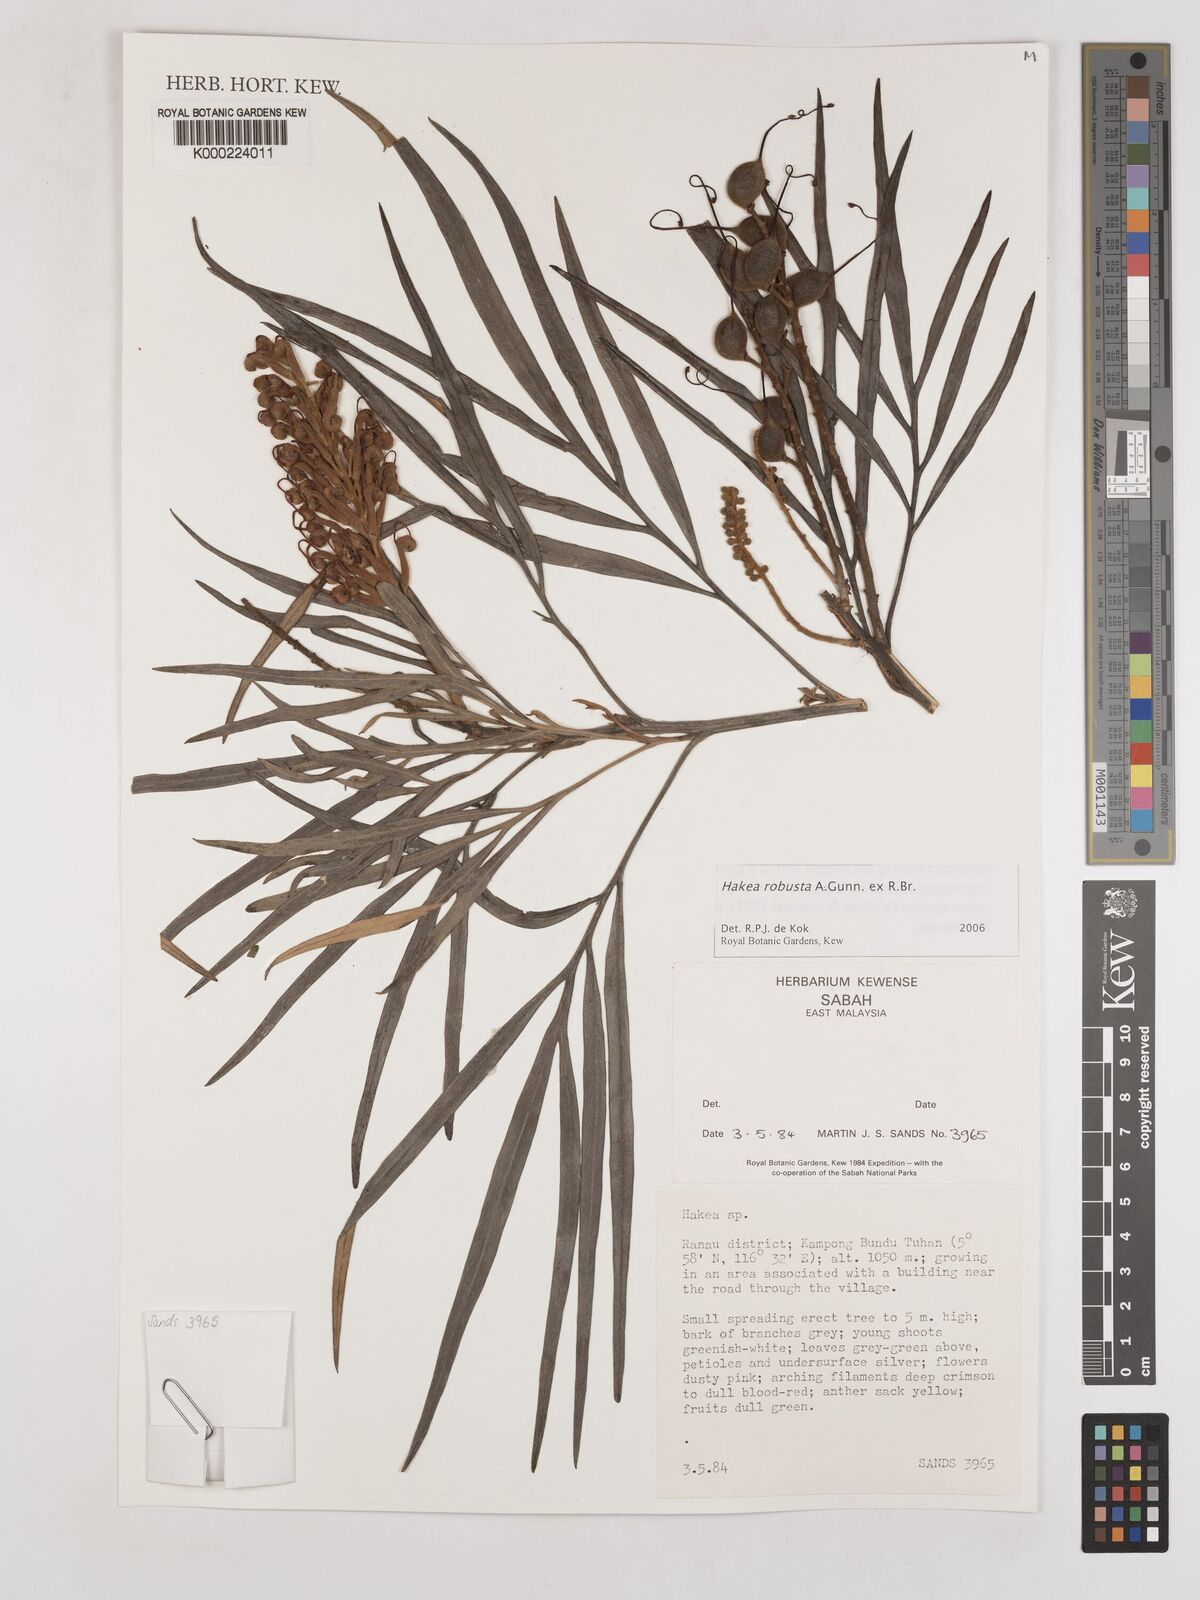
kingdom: Plantae
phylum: Tracheophyta
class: Magnoliopsida
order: Proteales
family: Proteaceae
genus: Hakea
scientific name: Hakea
